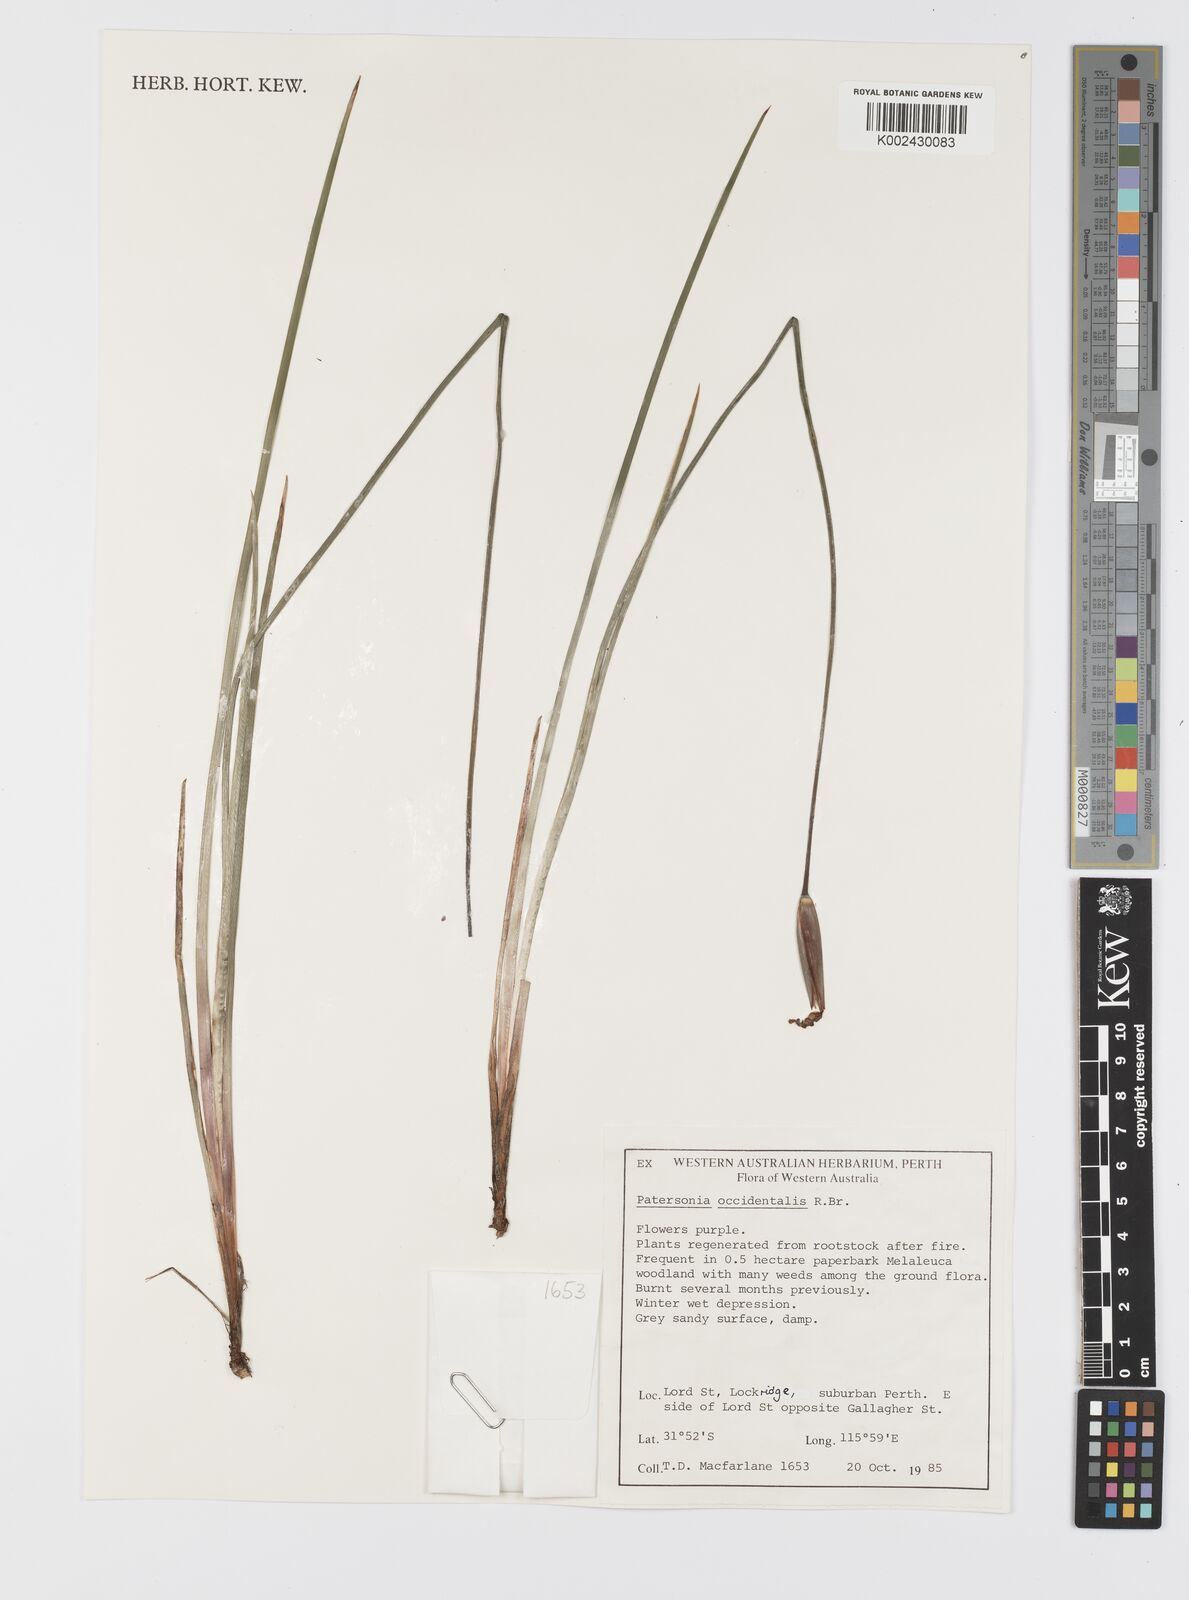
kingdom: Plantae
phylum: Tracheophyta
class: Liliopsida
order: Asparagales
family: Iridaceae
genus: Patersonia
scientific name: Patersonia occidentalis
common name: Long purple-flag
